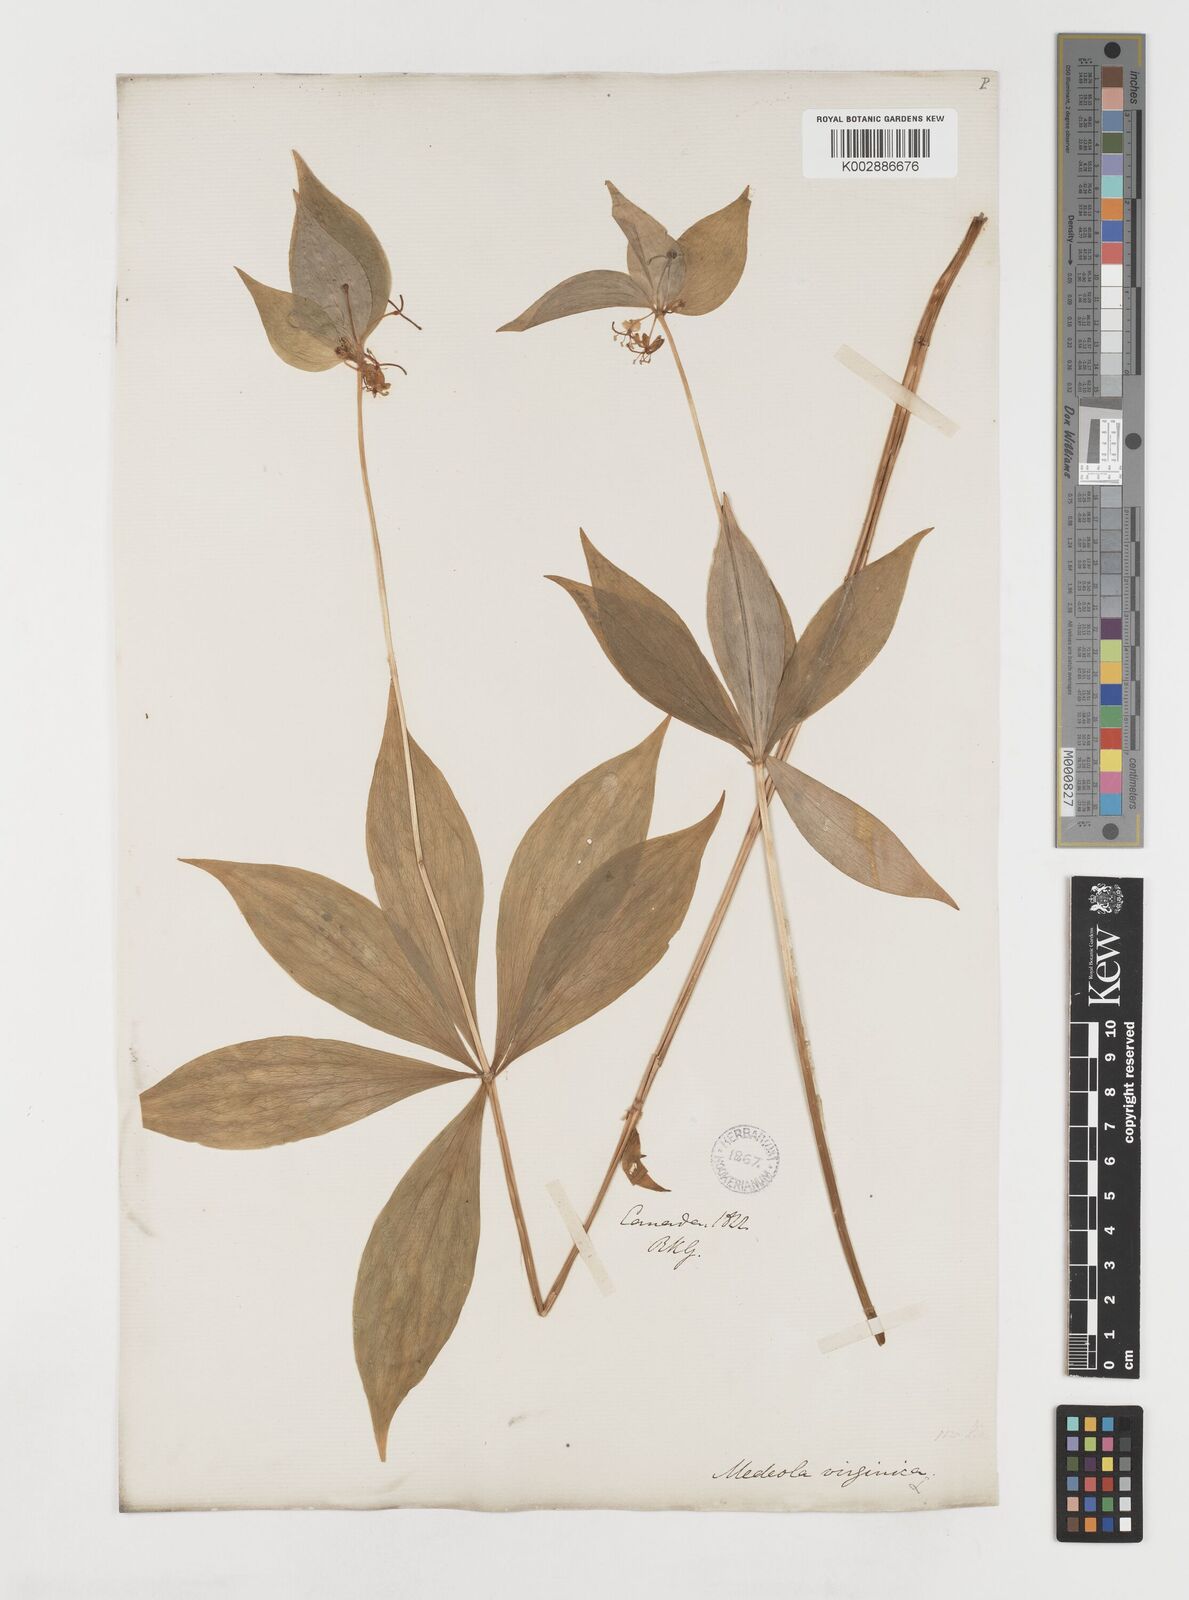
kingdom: Plantae
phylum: Tracheophyta
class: Liliopsida
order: Liliales
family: Liliaceae
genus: Medeola
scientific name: Medeola virginiana
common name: Indian cucumber-root
